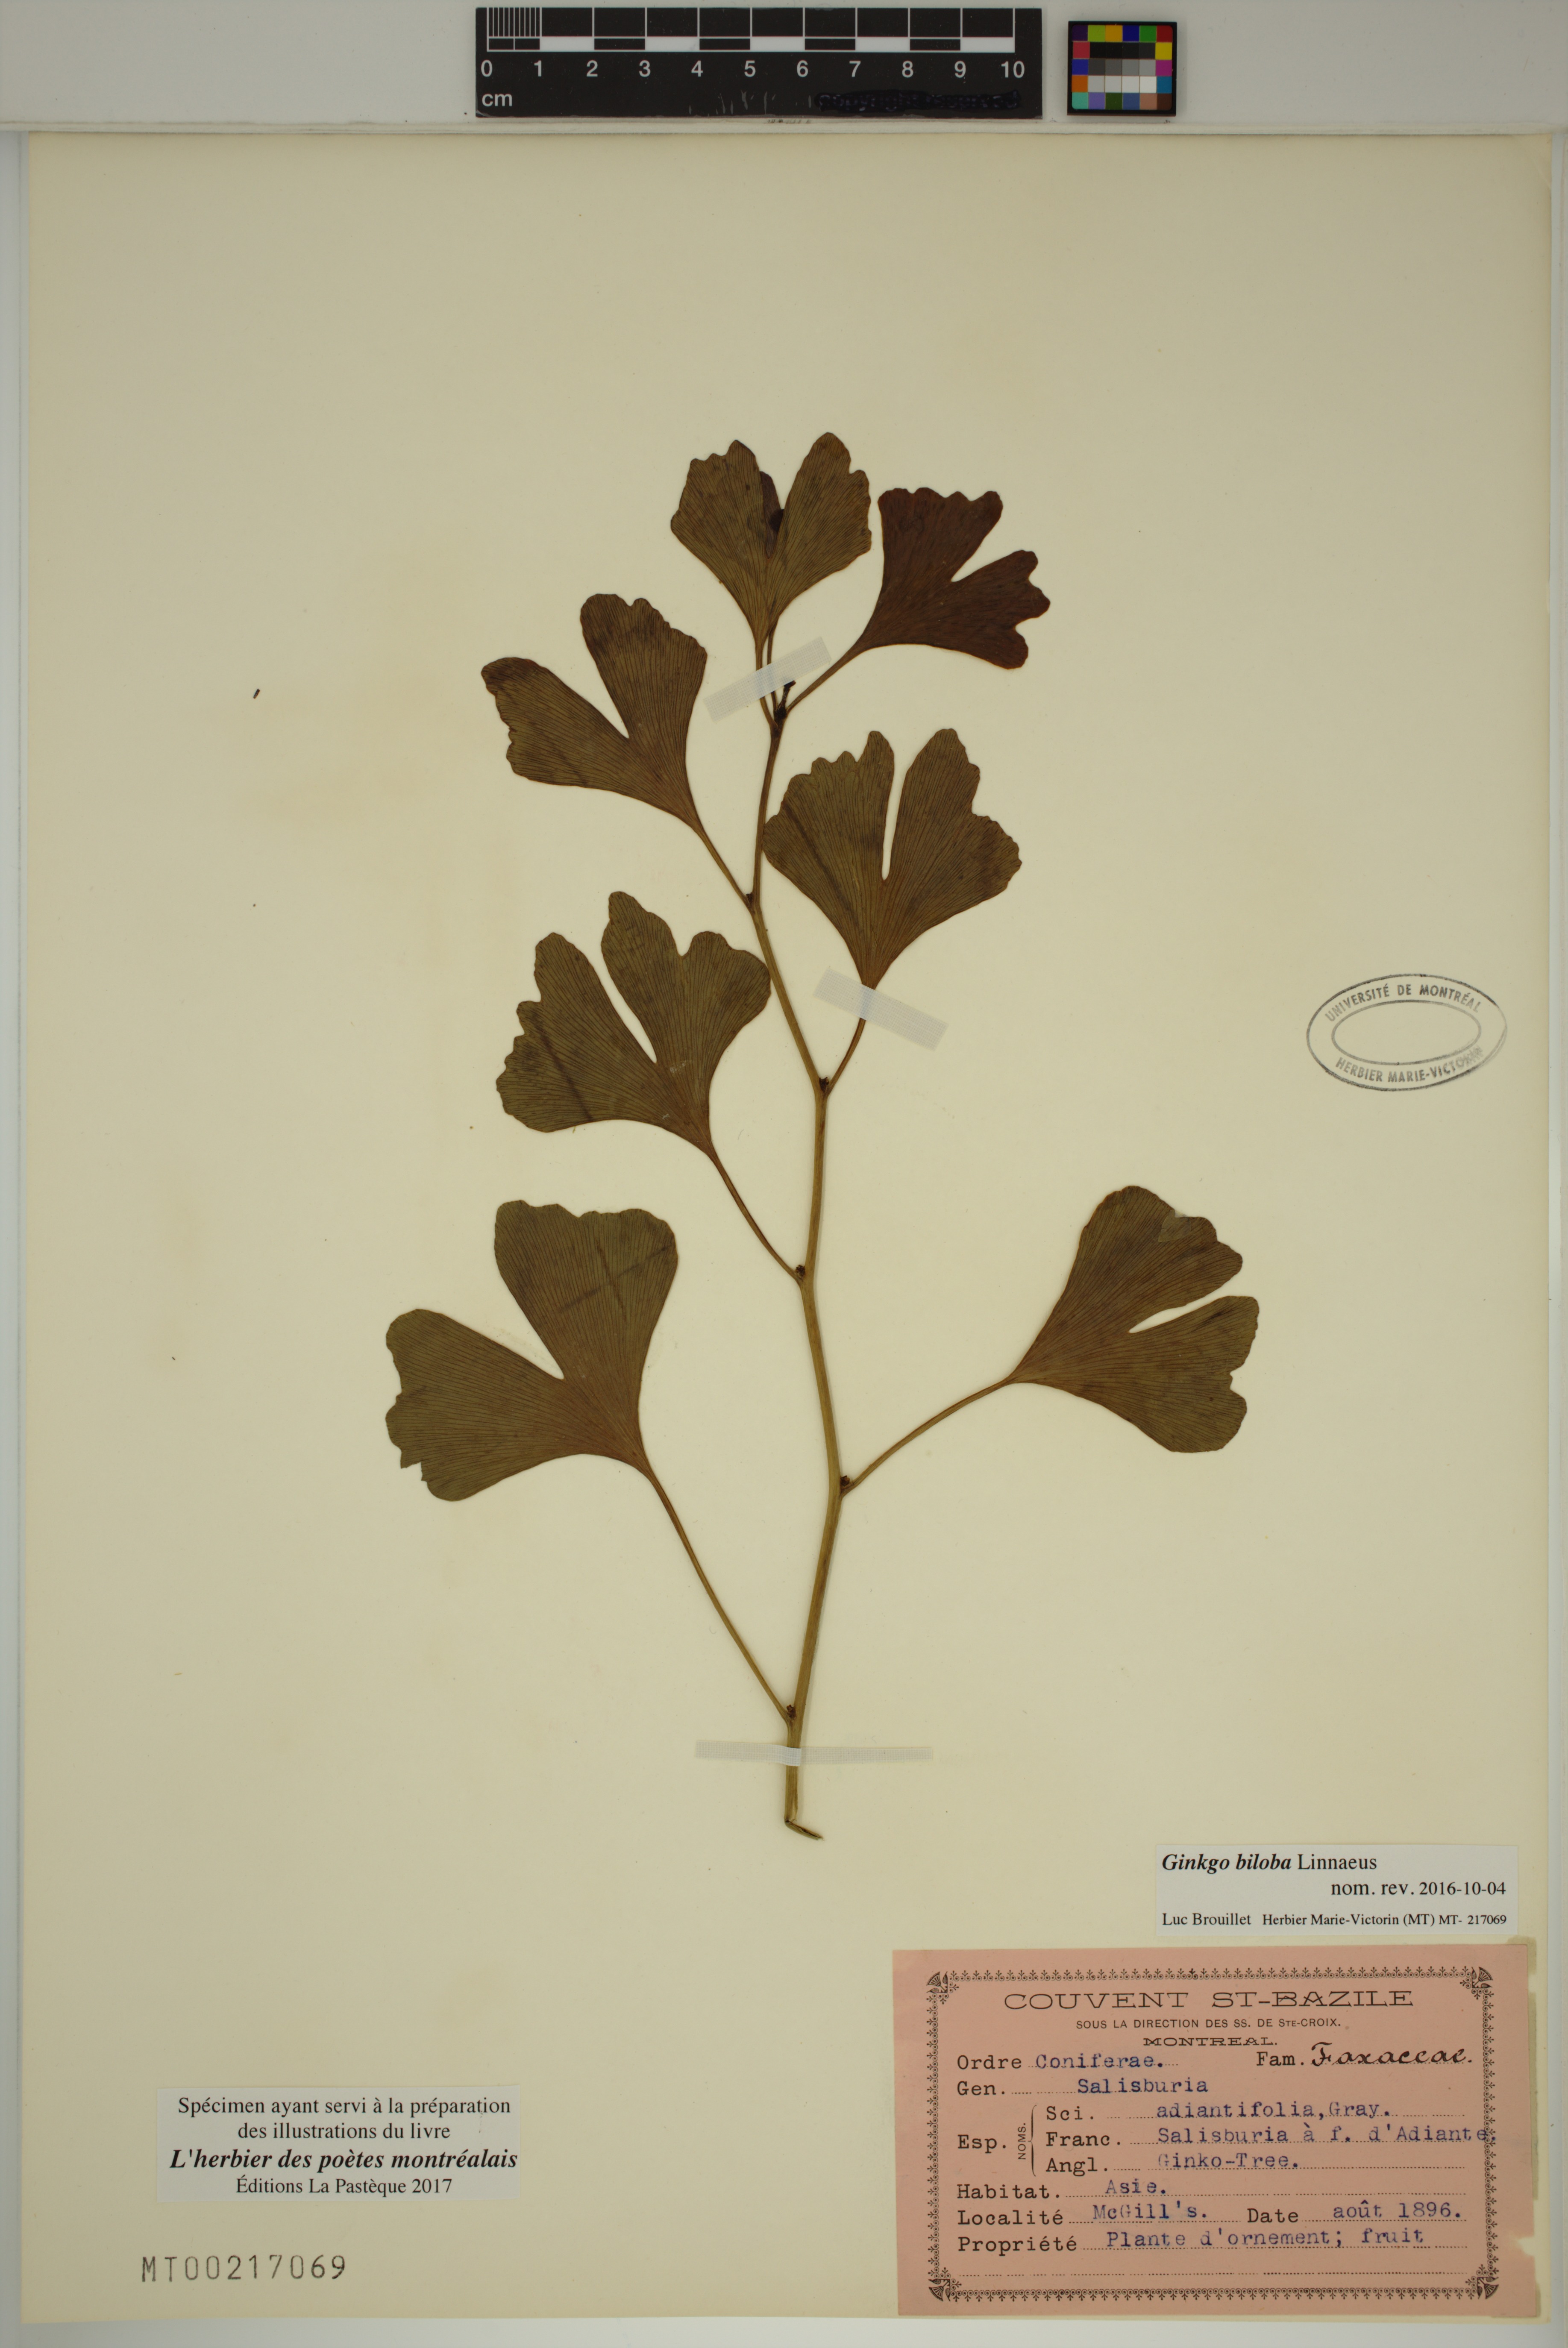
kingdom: Plantae
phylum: Tracheophyta
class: Ginkgoopsida
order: Ginkgoales
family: Ginkgoaceae
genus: Ginkgo
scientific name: Ginkgo biloba
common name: Ginkgo
